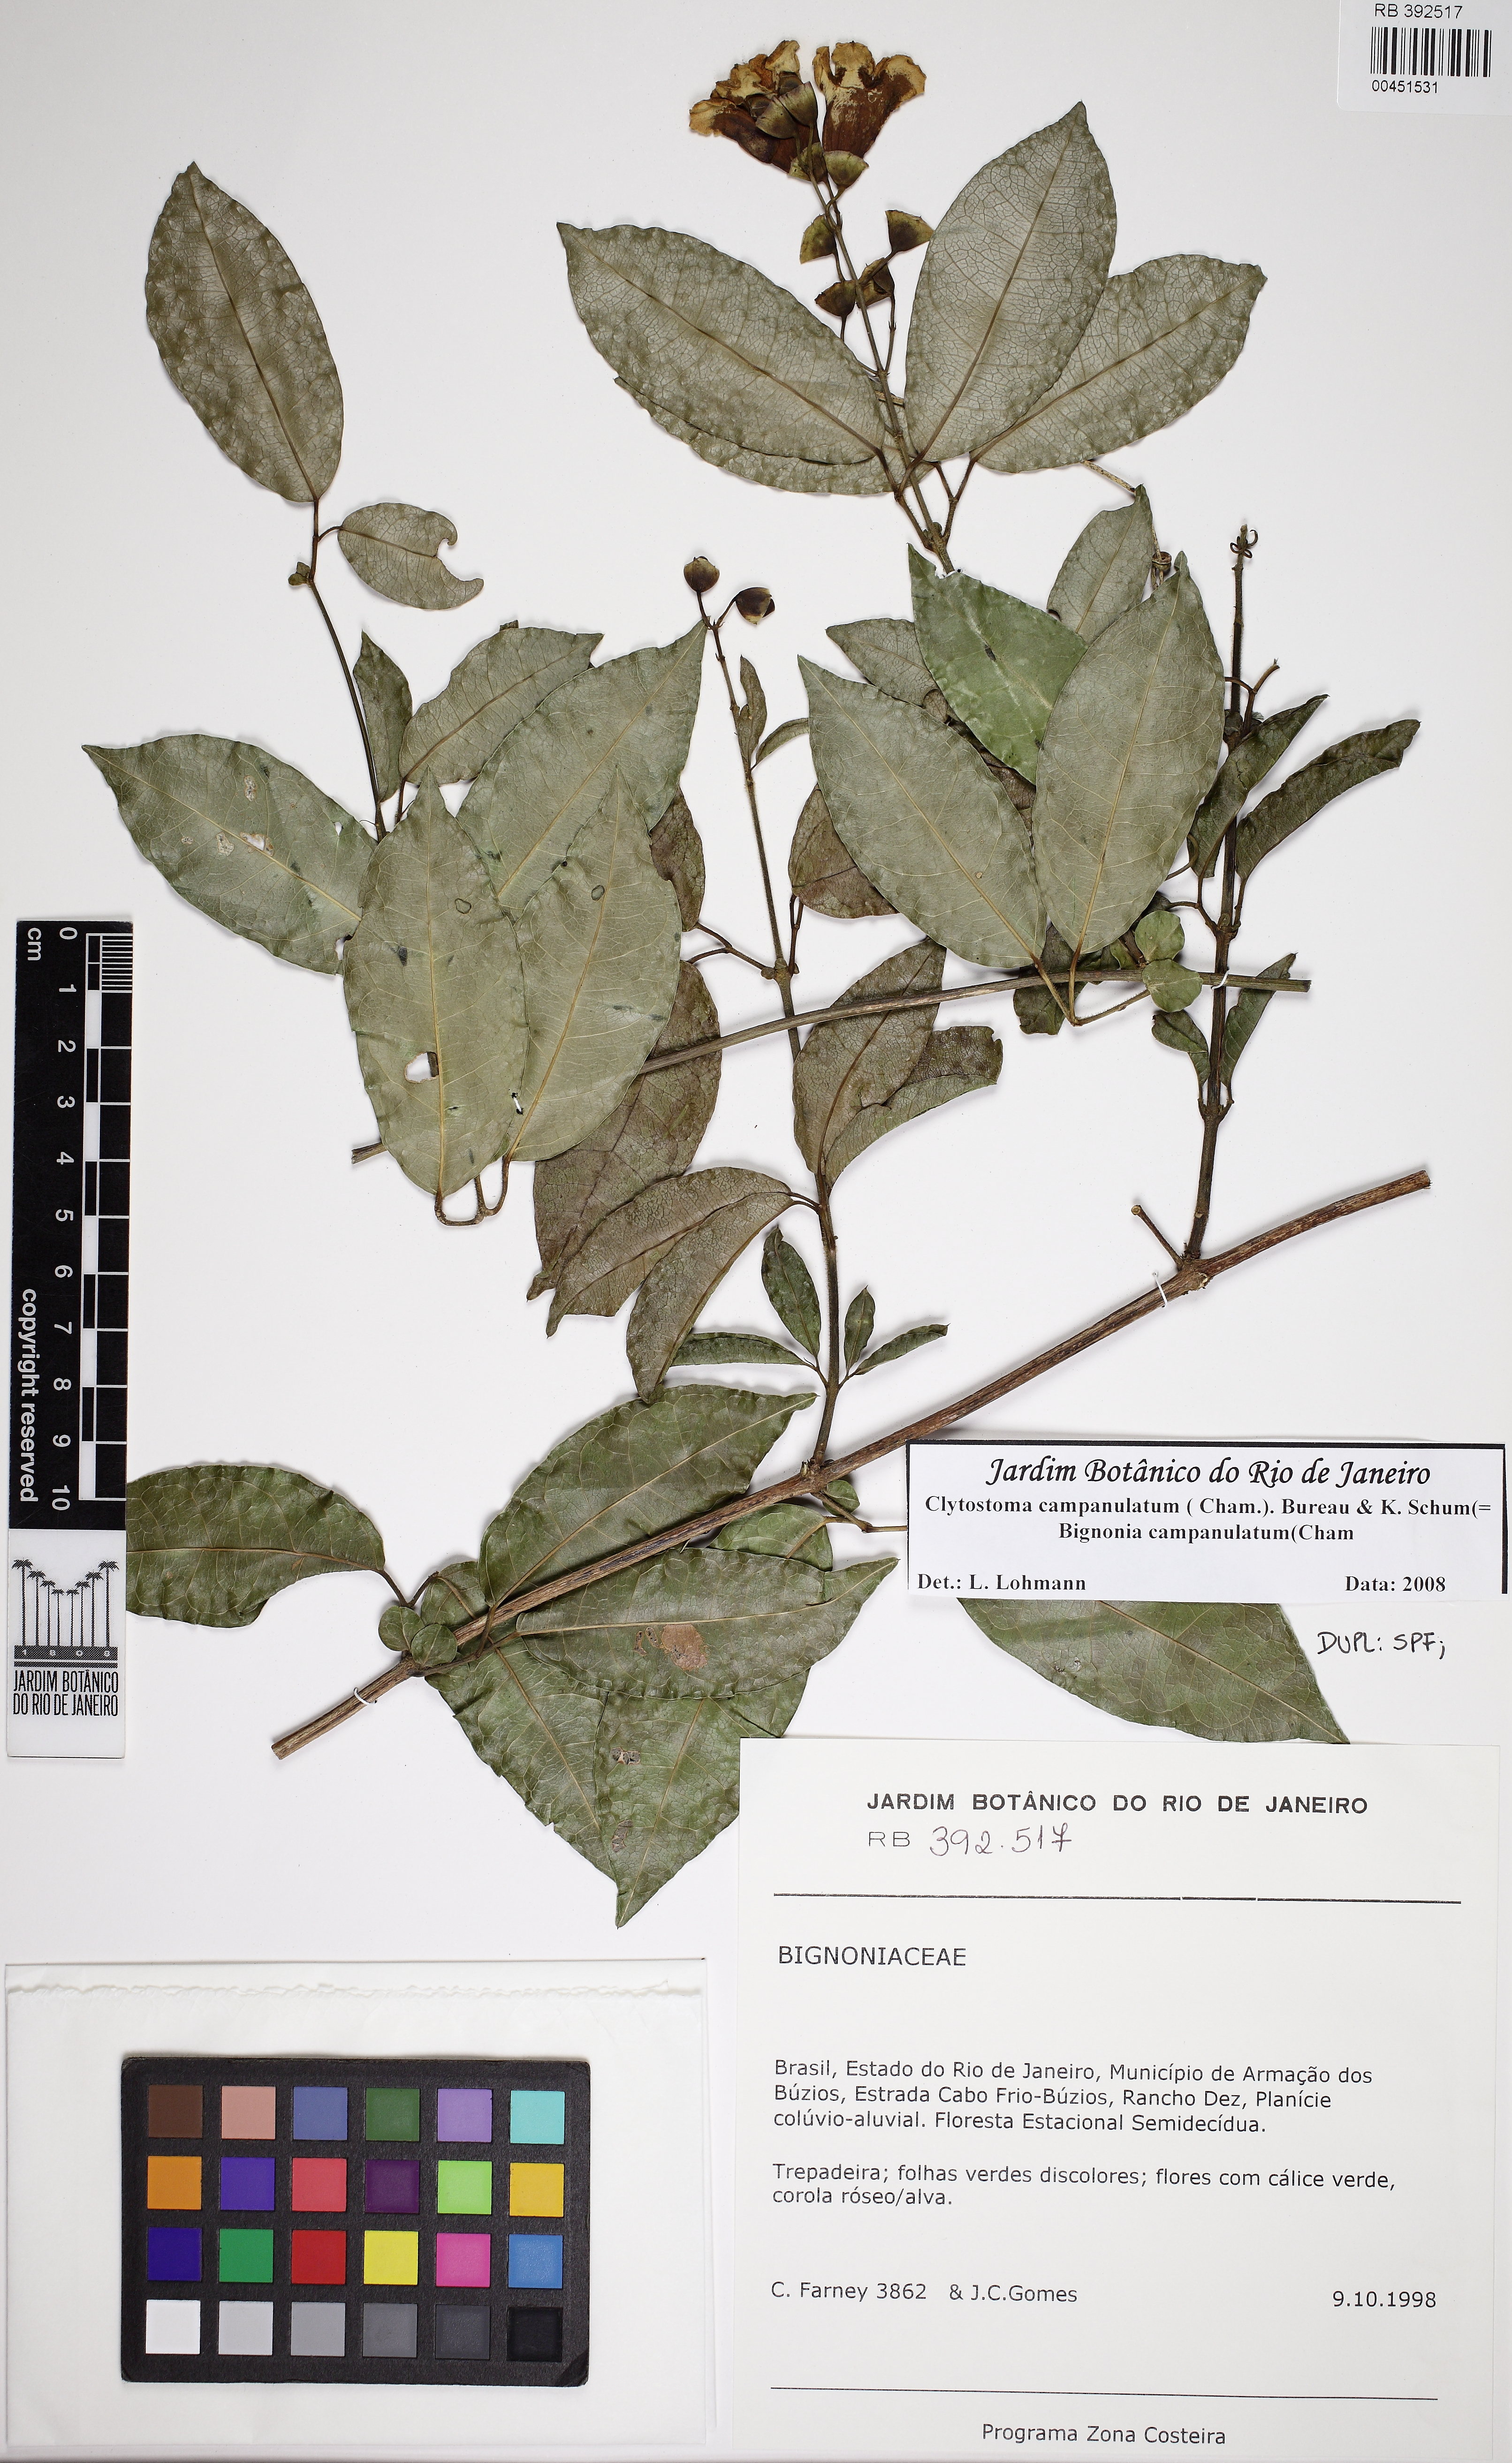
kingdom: Plantae
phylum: Tracheophyta
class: Magnoliopsida
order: Lamiales
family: Bignoniaceae
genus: Bignonia
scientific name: Bignonia campanulata
